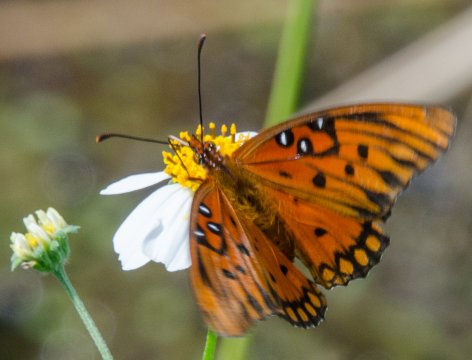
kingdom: Animalia
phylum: Arthropoda
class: Insecta
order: Lepidoptera
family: Nymphalidae
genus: Dione
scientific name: Dione vanillae
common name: Gulf Fritillary
